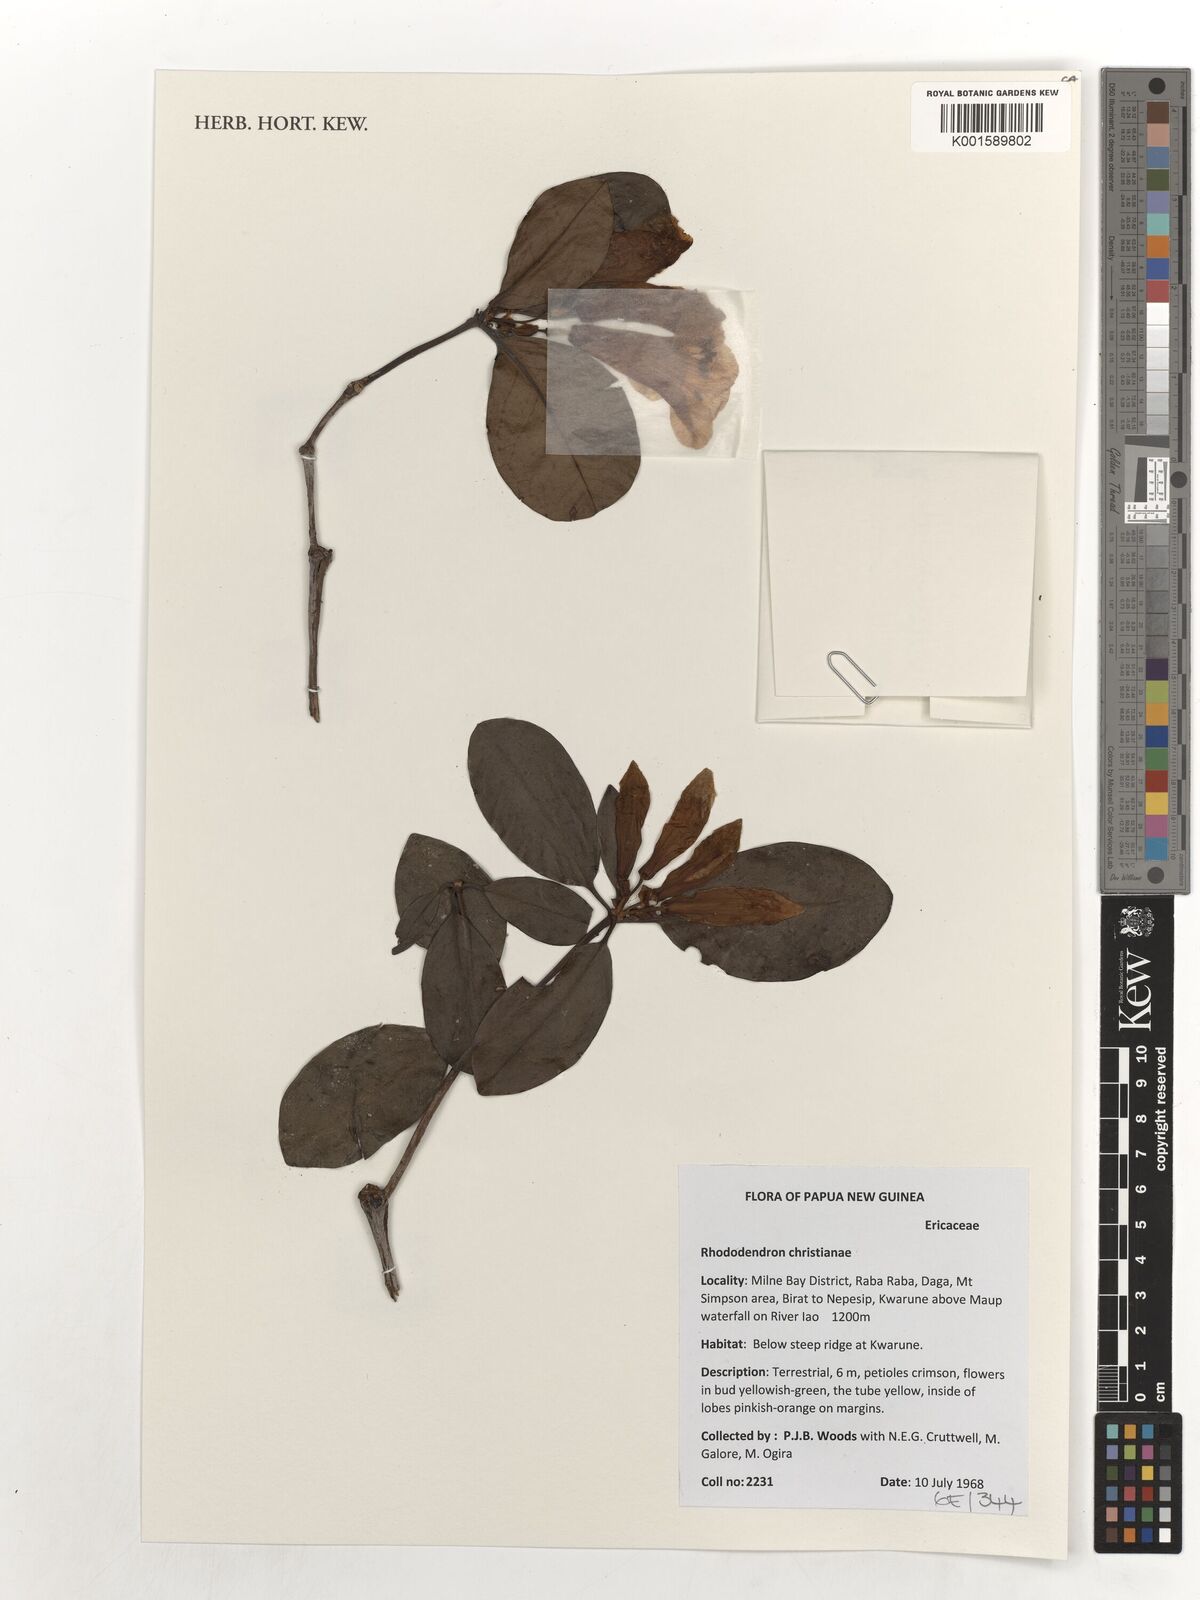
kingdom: Plantae
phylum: Tracheophyta
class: Magnoliopsida
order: Ericales
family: Ericaceae
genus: Rhododendron
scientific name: Rhododendron christianiae
